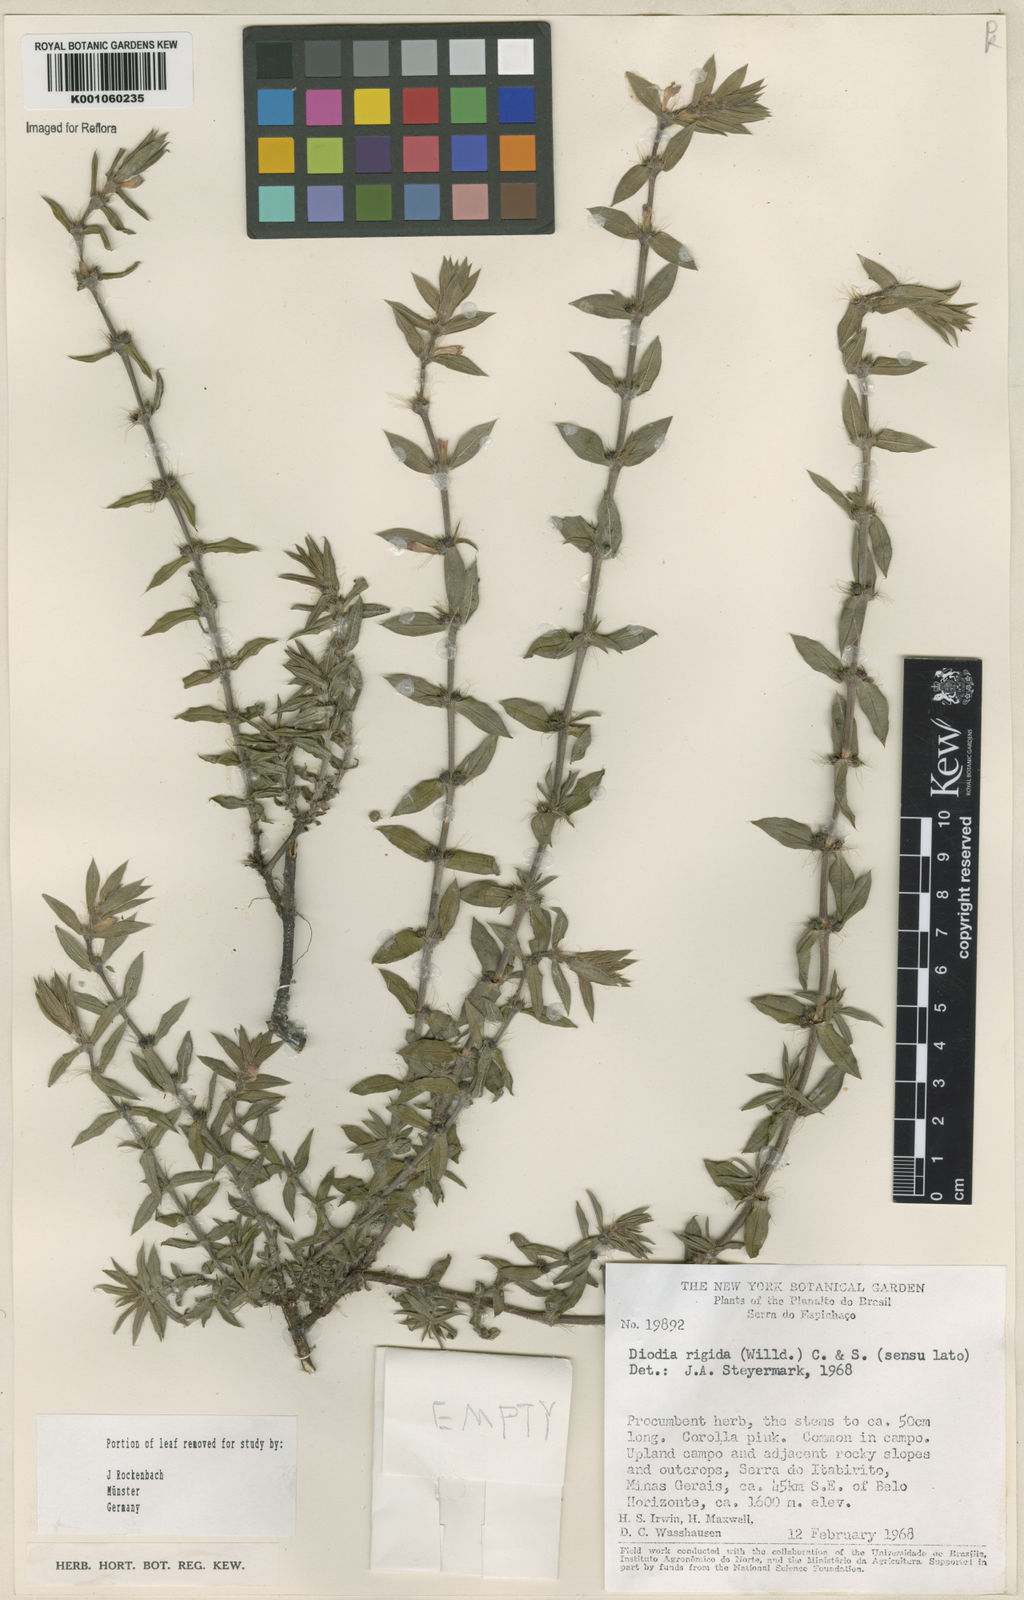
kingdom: Plantae
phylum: Tracheophyta
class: Magnoliopsida
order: Gentianales
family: Rubiaceae
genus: Hexasepalum
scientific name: Hexasepalum apiculatum
